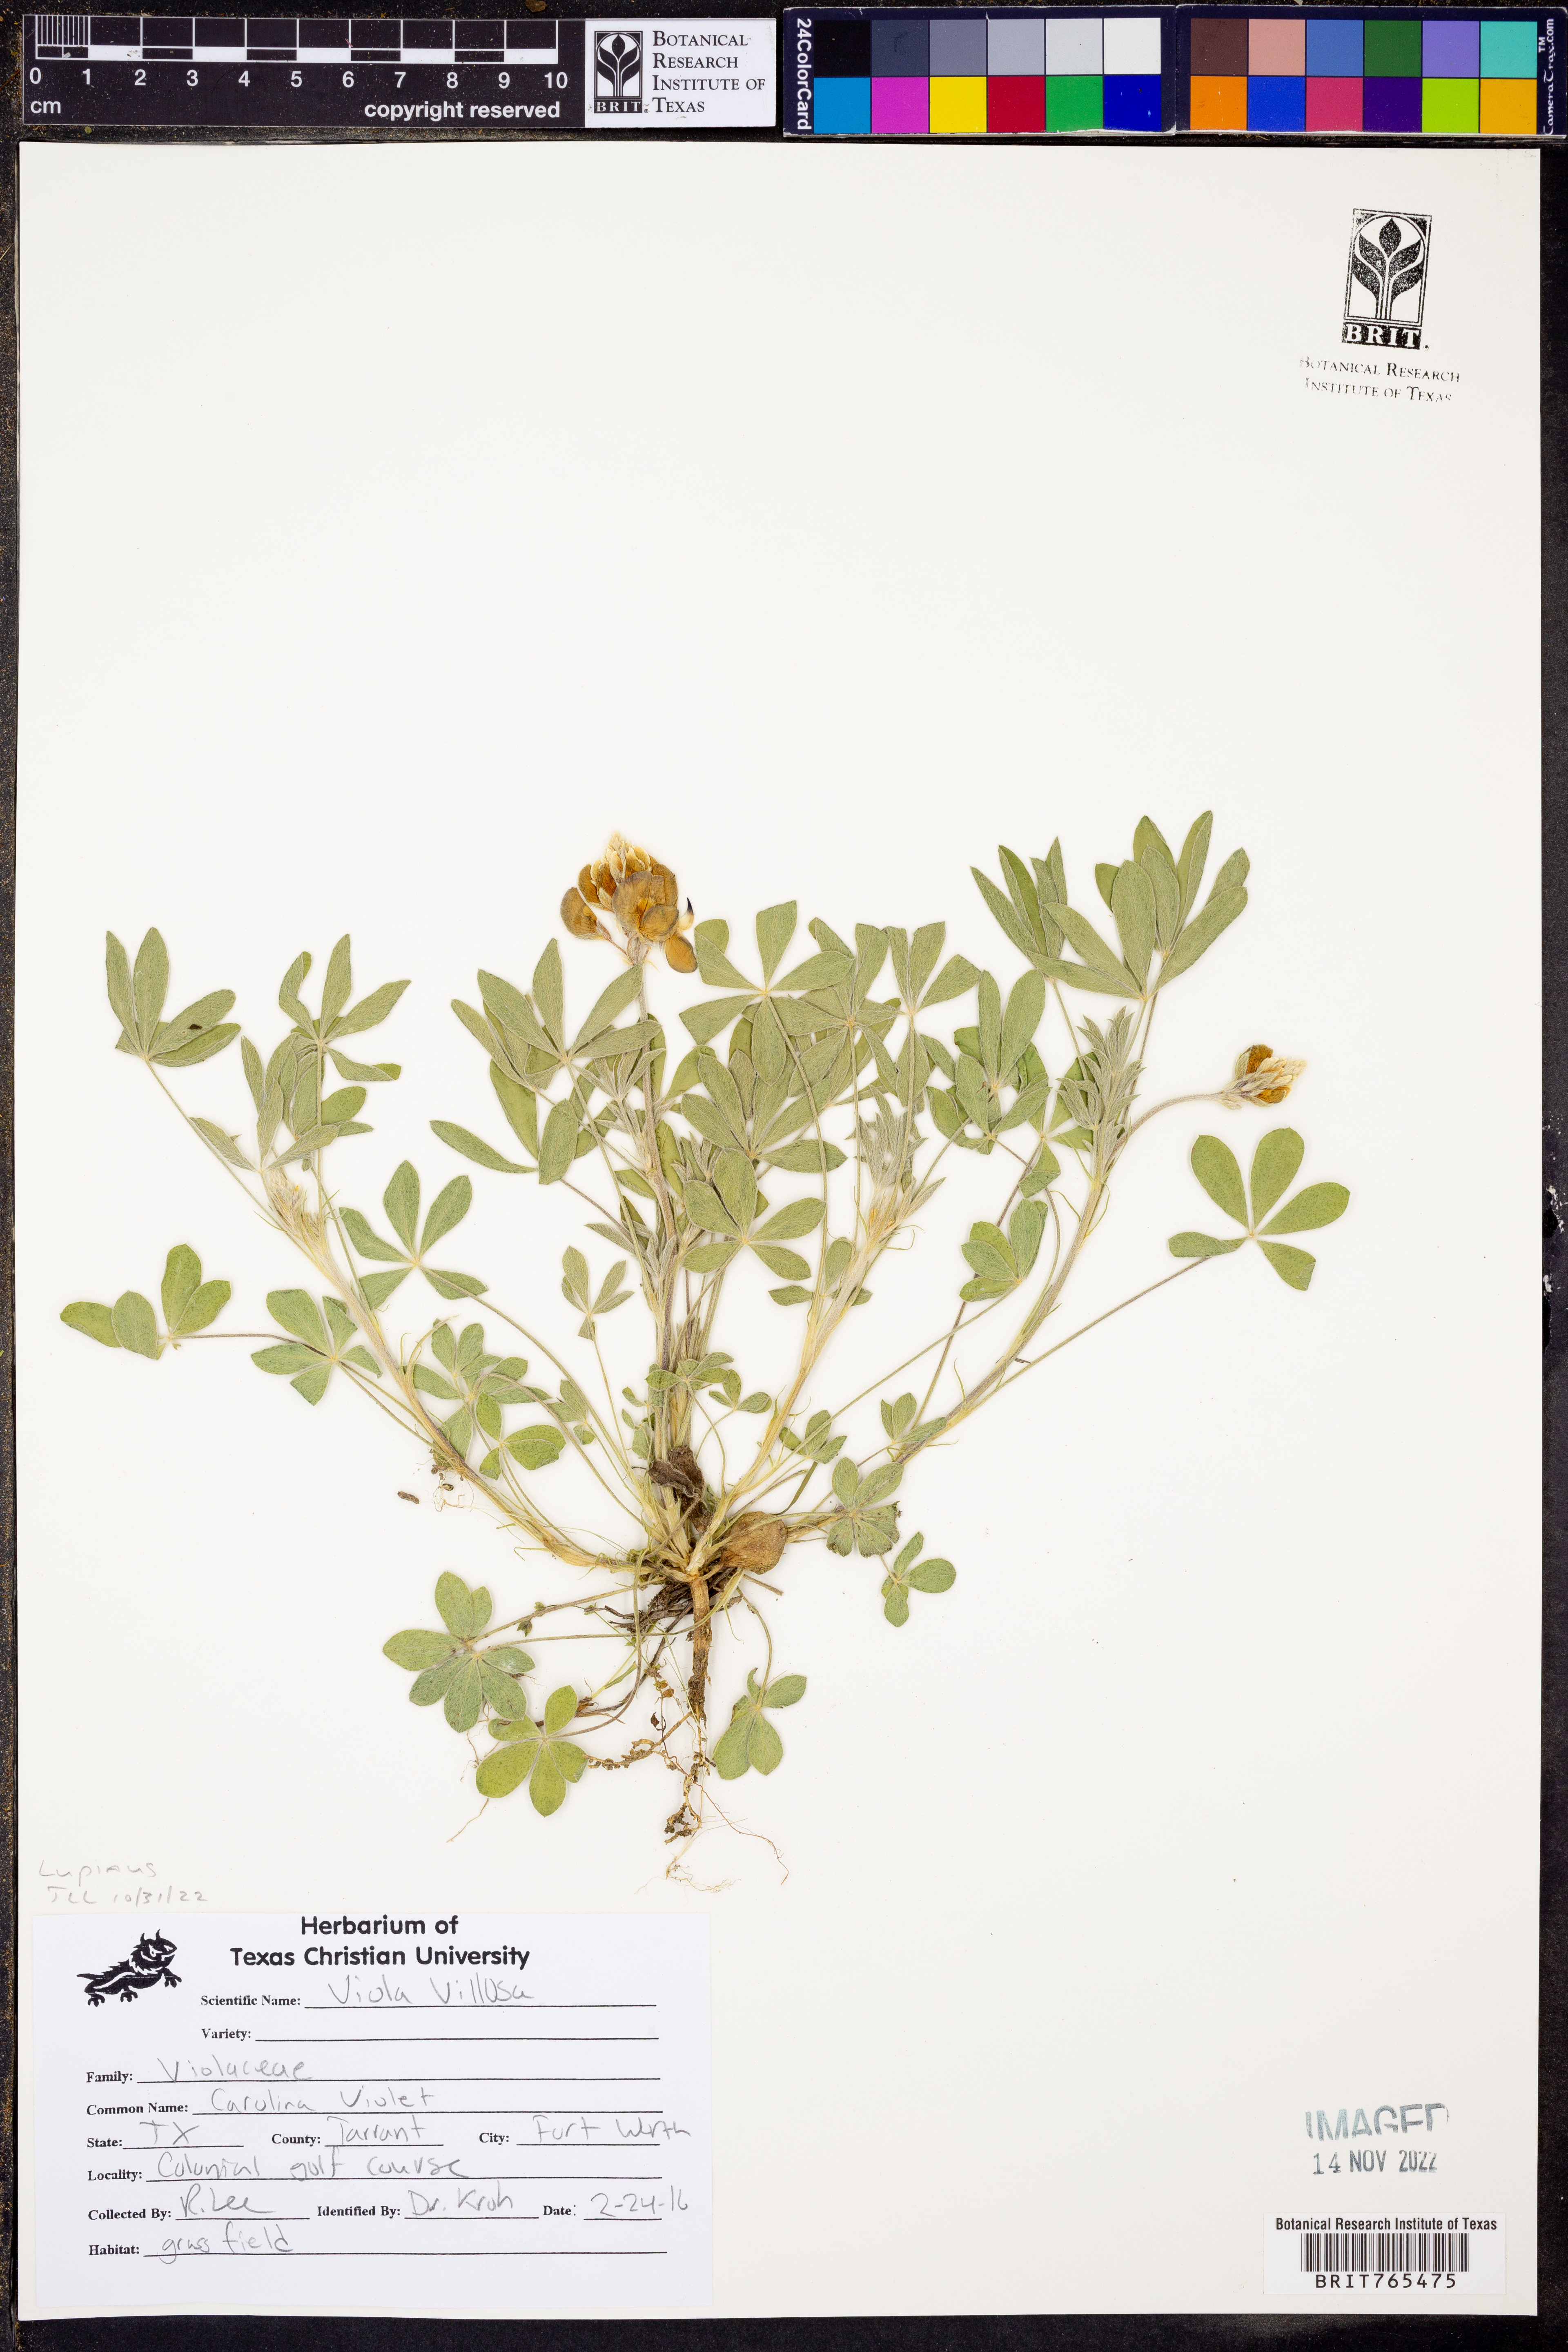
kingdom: Plantae
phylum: Tracheophyta
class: Magnoliopsida
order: Malpighiales
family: Violaceae
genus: Viola
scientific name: Viola villosa
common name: Carolina violet
